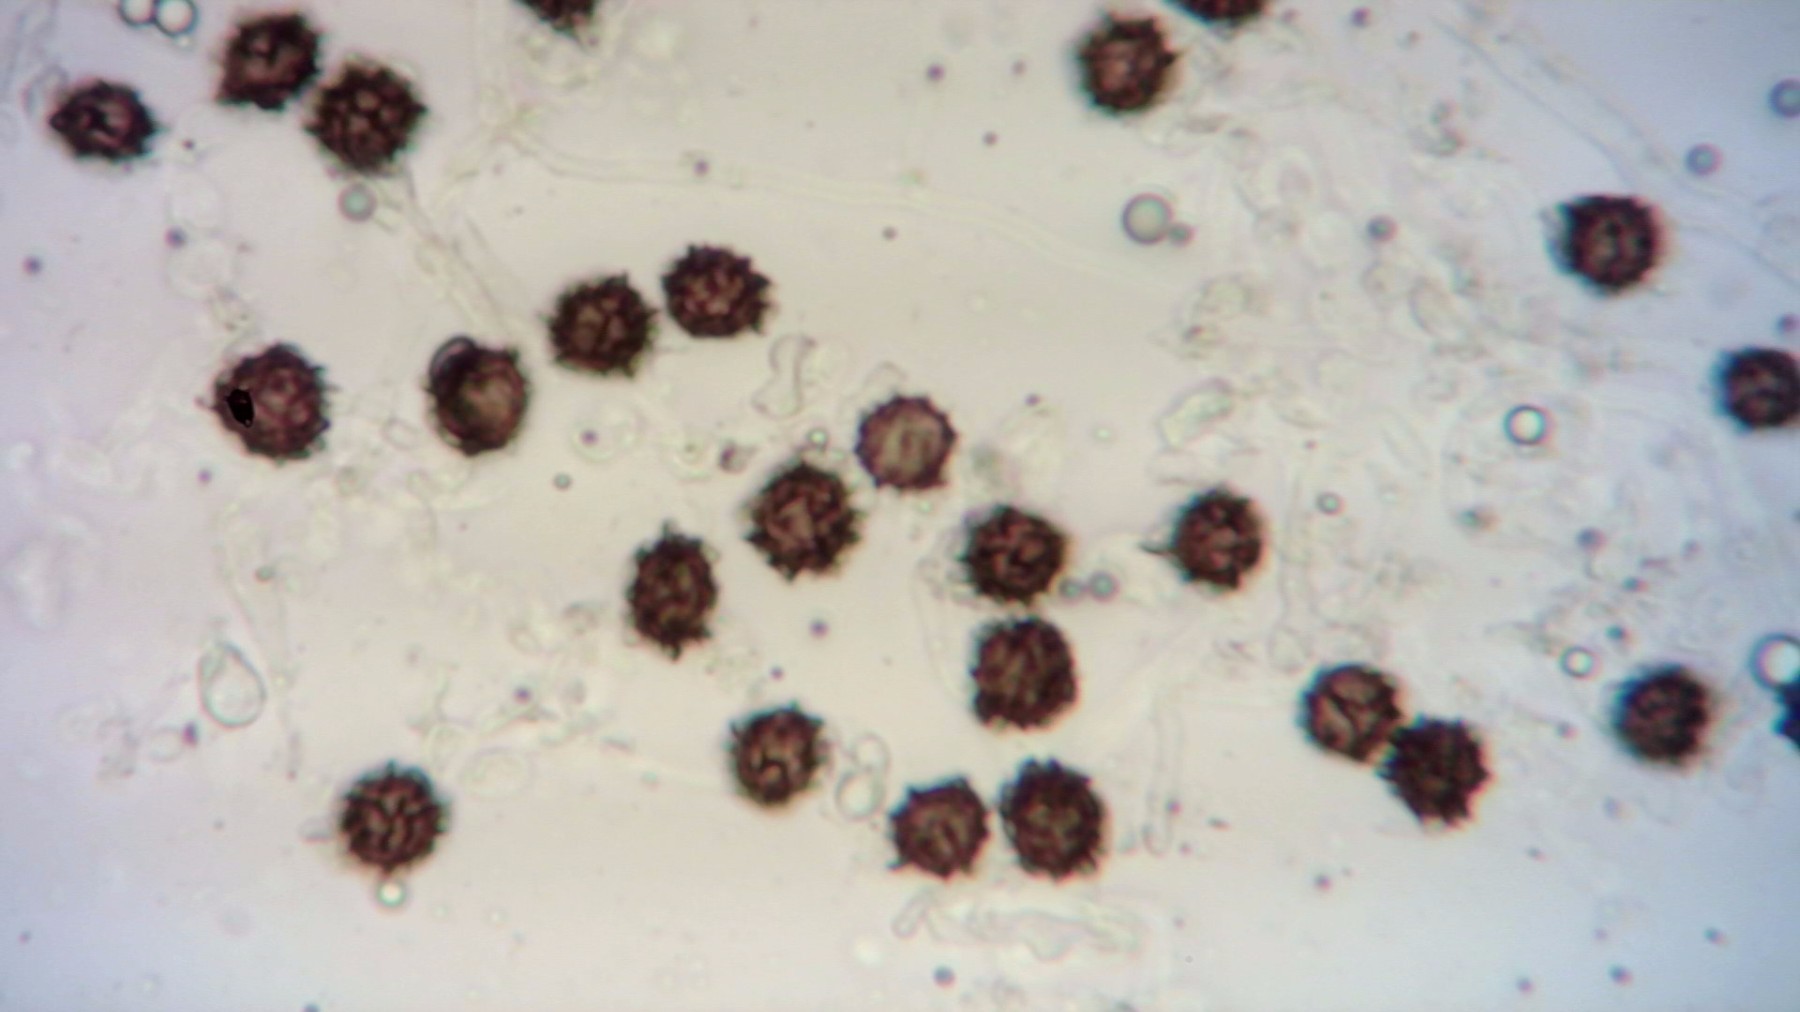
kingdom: Fungi
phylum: Basidiomycota
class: Agaricomycetes
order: Boletales
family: Sclerodermataceae
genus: Scleroderma
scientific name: Scleroderma bovista
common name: bovist-bruskbold
